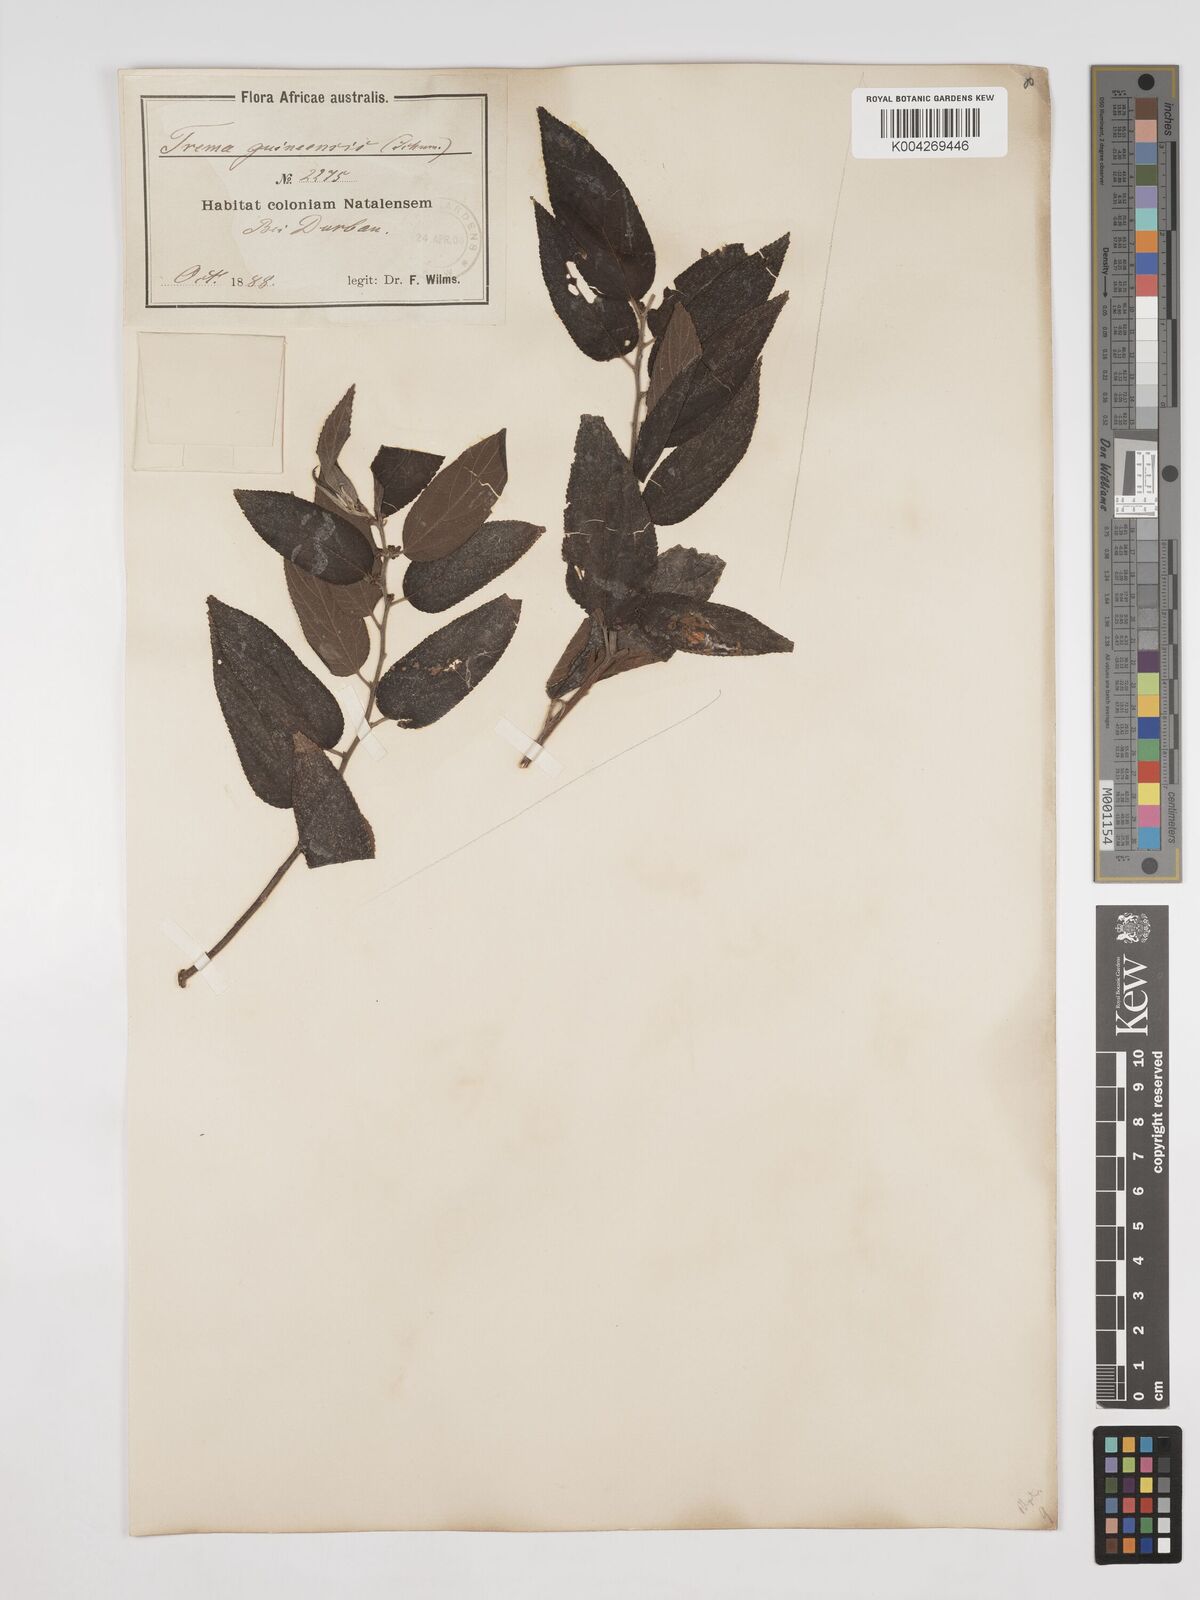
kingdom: Plantae
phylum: Tracheophyta
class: Magnoliopsida
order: Rosales
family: Cannabaceae
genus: Trema
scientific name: Trema orientale
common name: Indian charcoal tree
